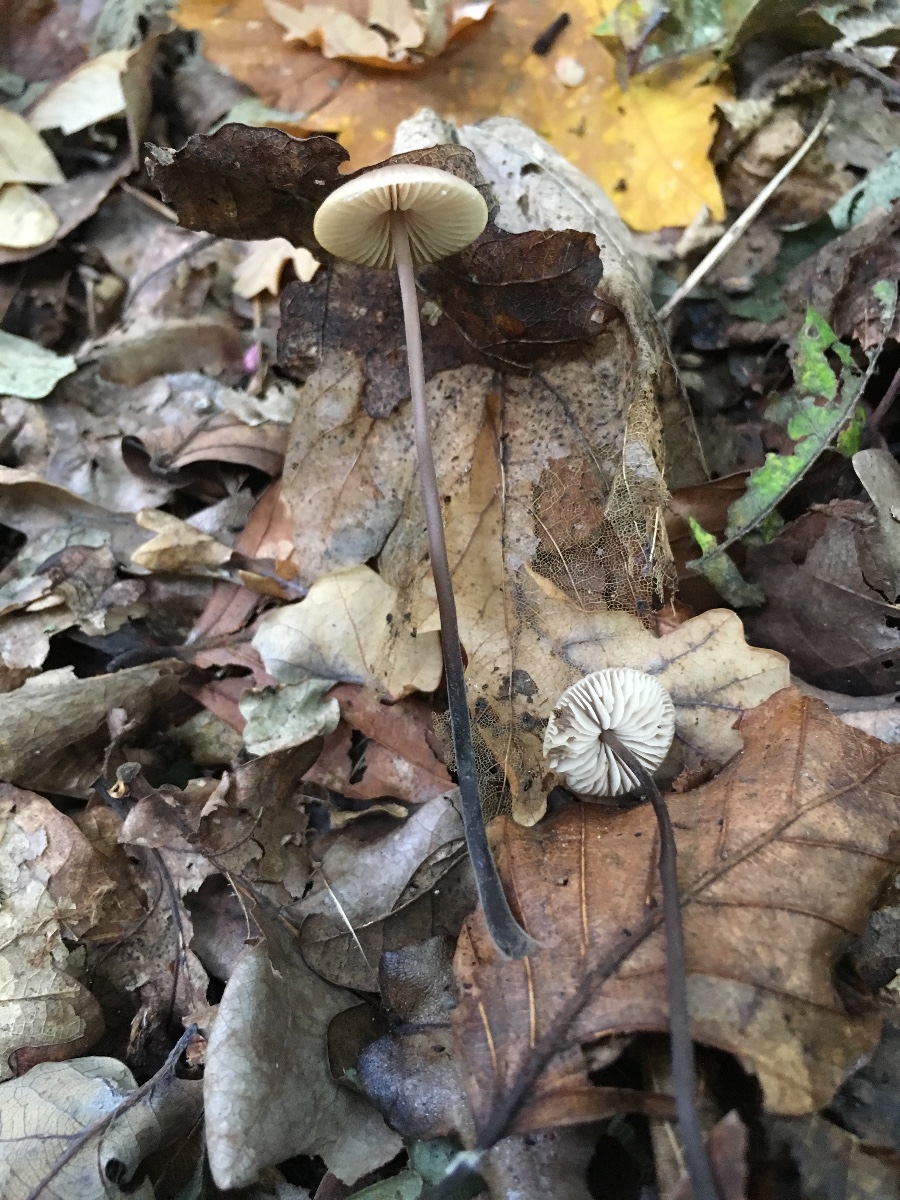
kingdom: Fungi
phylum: Basidiomycota
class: Agaricomycetes
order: Agaricales
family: Omphalotaceae
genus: Mycetinis
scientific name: Mycetinis alliaceus
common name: stor løghat
